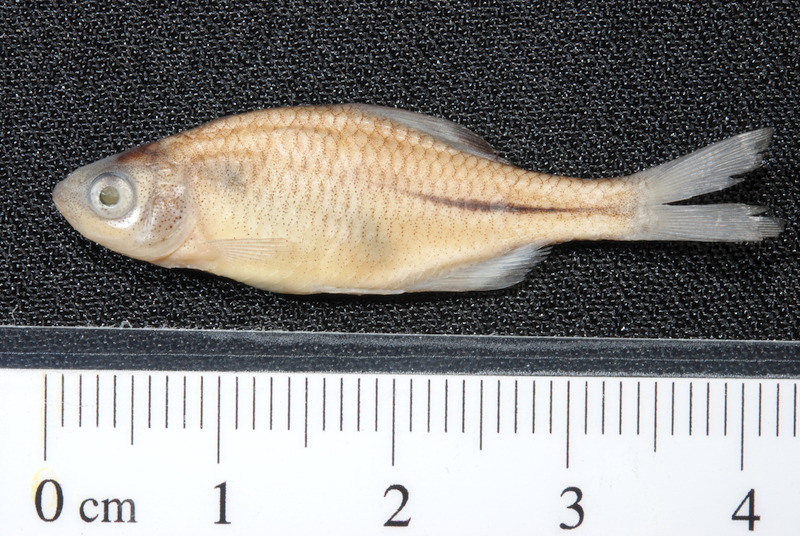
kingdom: Animalia
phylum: Chordata
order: Cypriniformes
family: Cyprinidae
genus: Rhodeus
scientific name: Rhodeus amarus
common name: Bitterling
